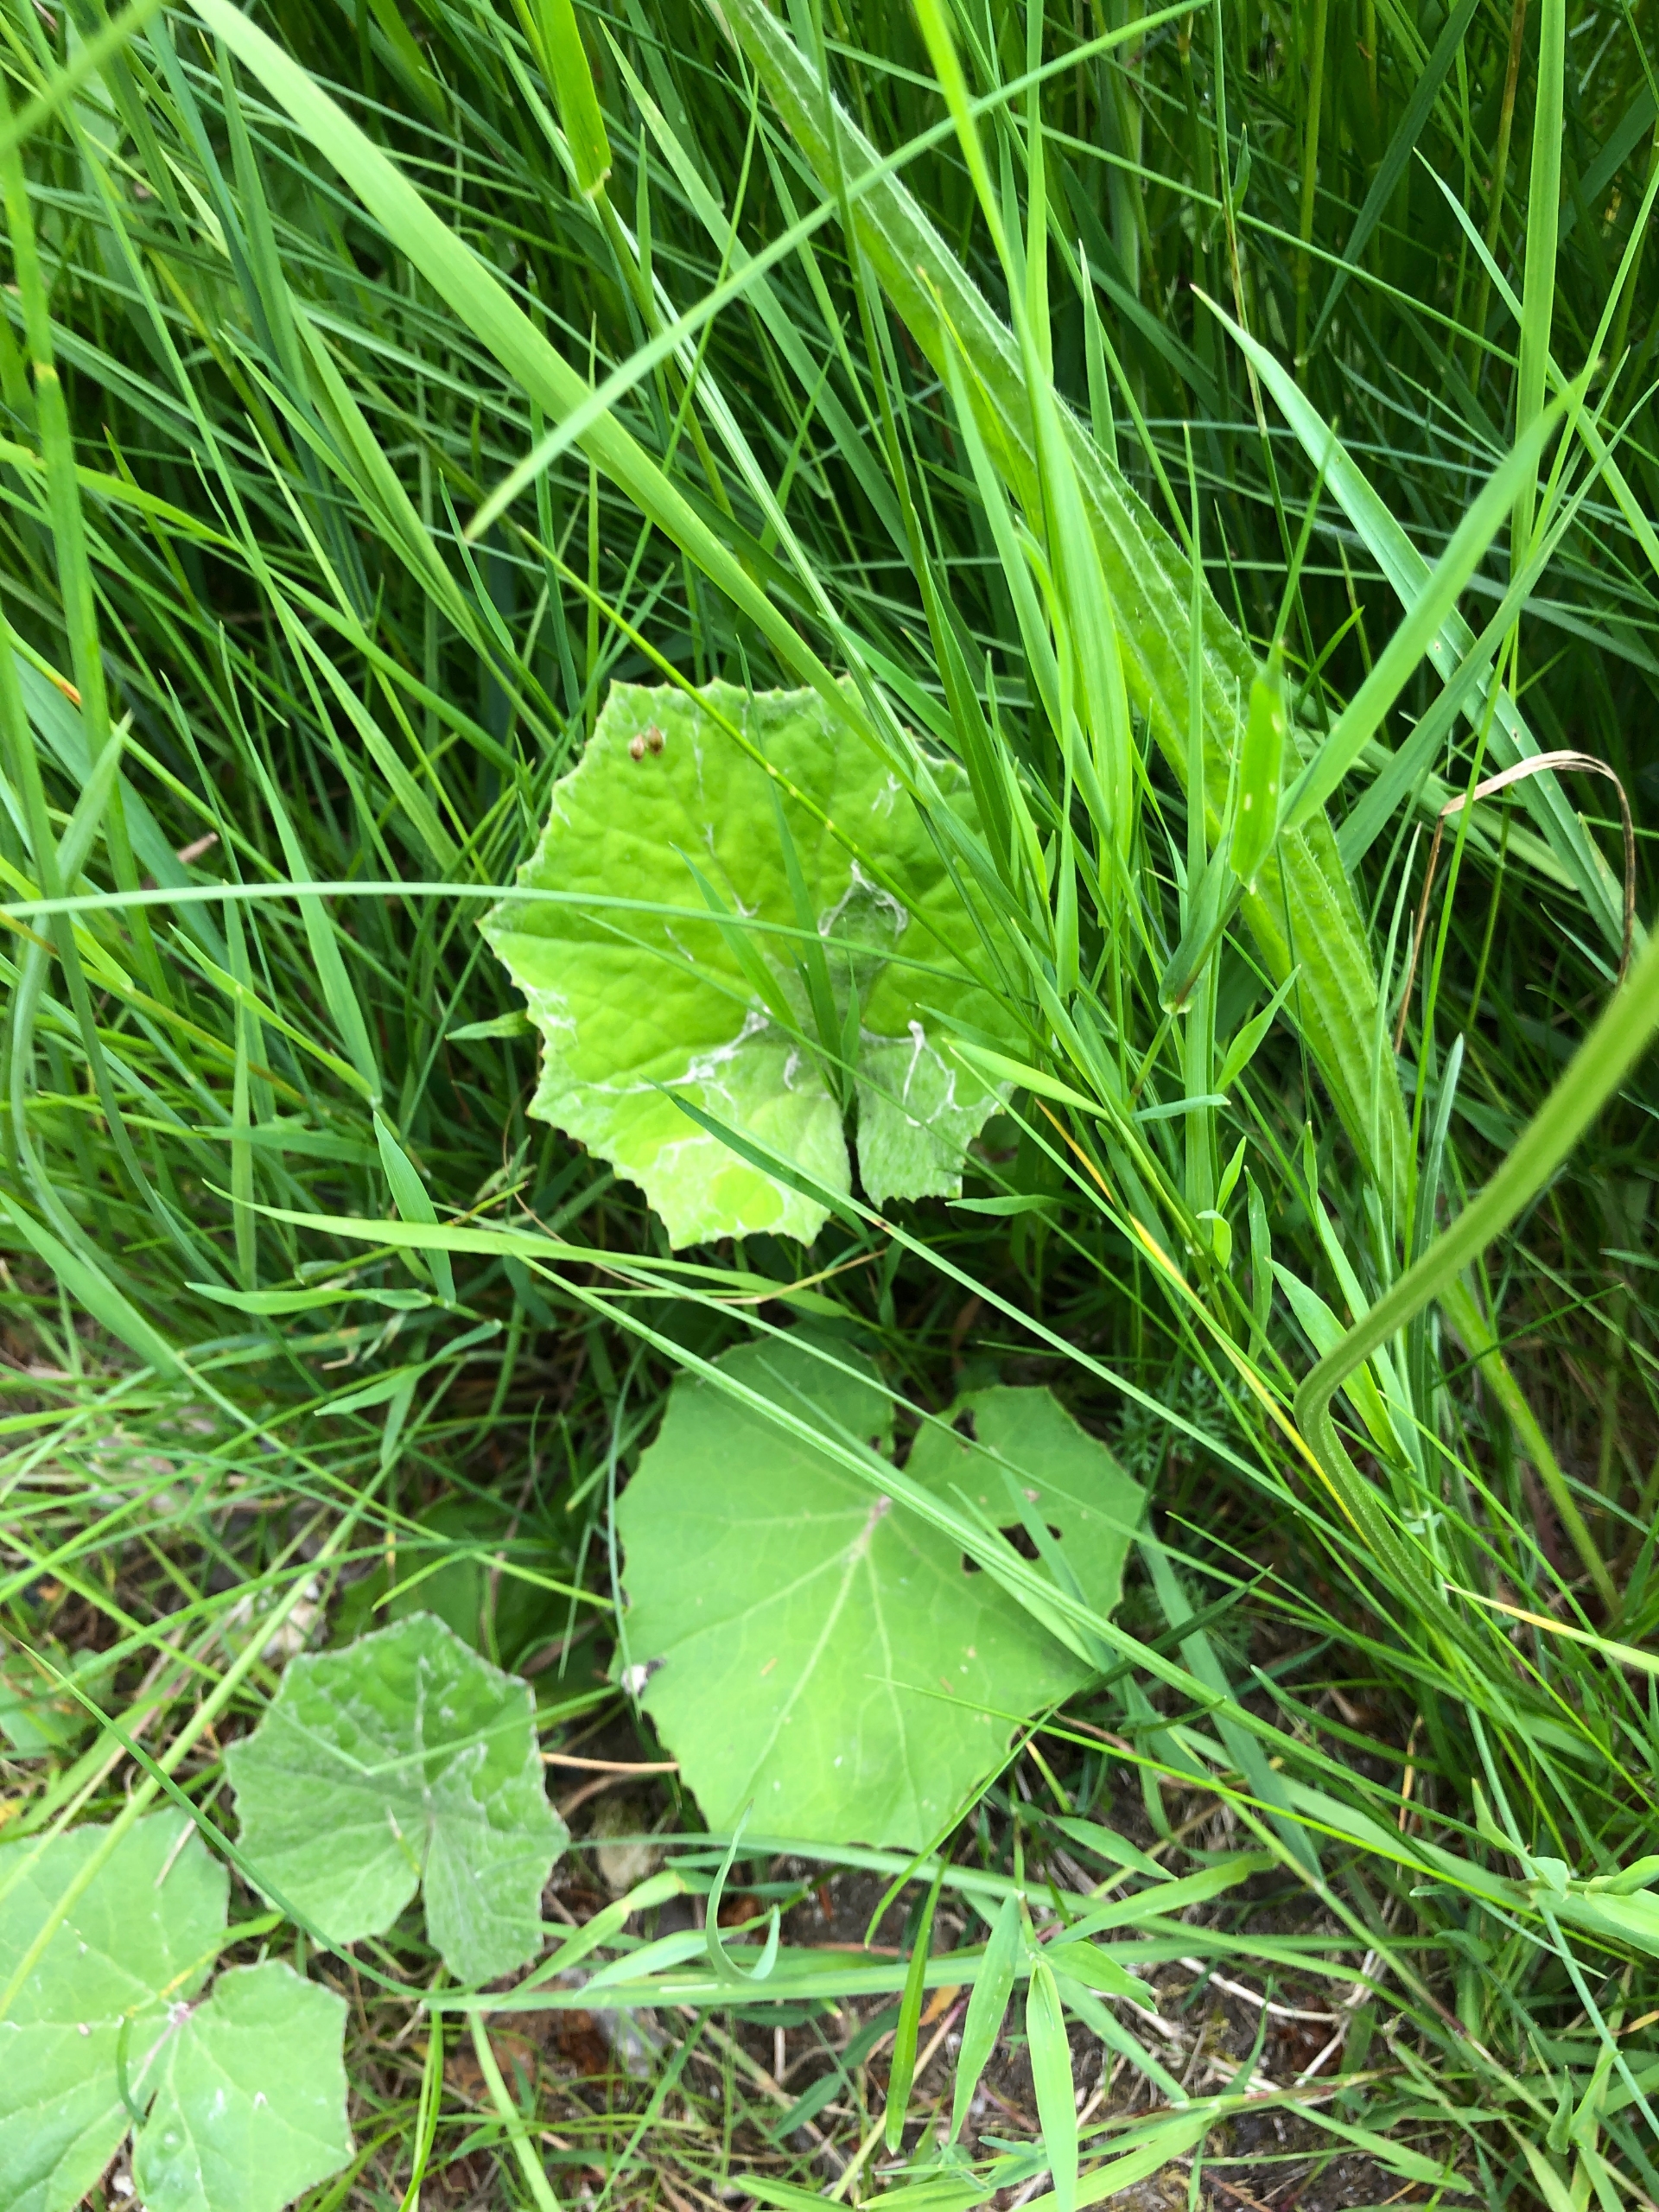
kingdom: Plantae
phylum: Tracheophyta
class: Magnoliopsida
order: Asterales
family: Asteraceae
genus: Tussilago
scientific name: Tussilago farfara
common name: Følfod
